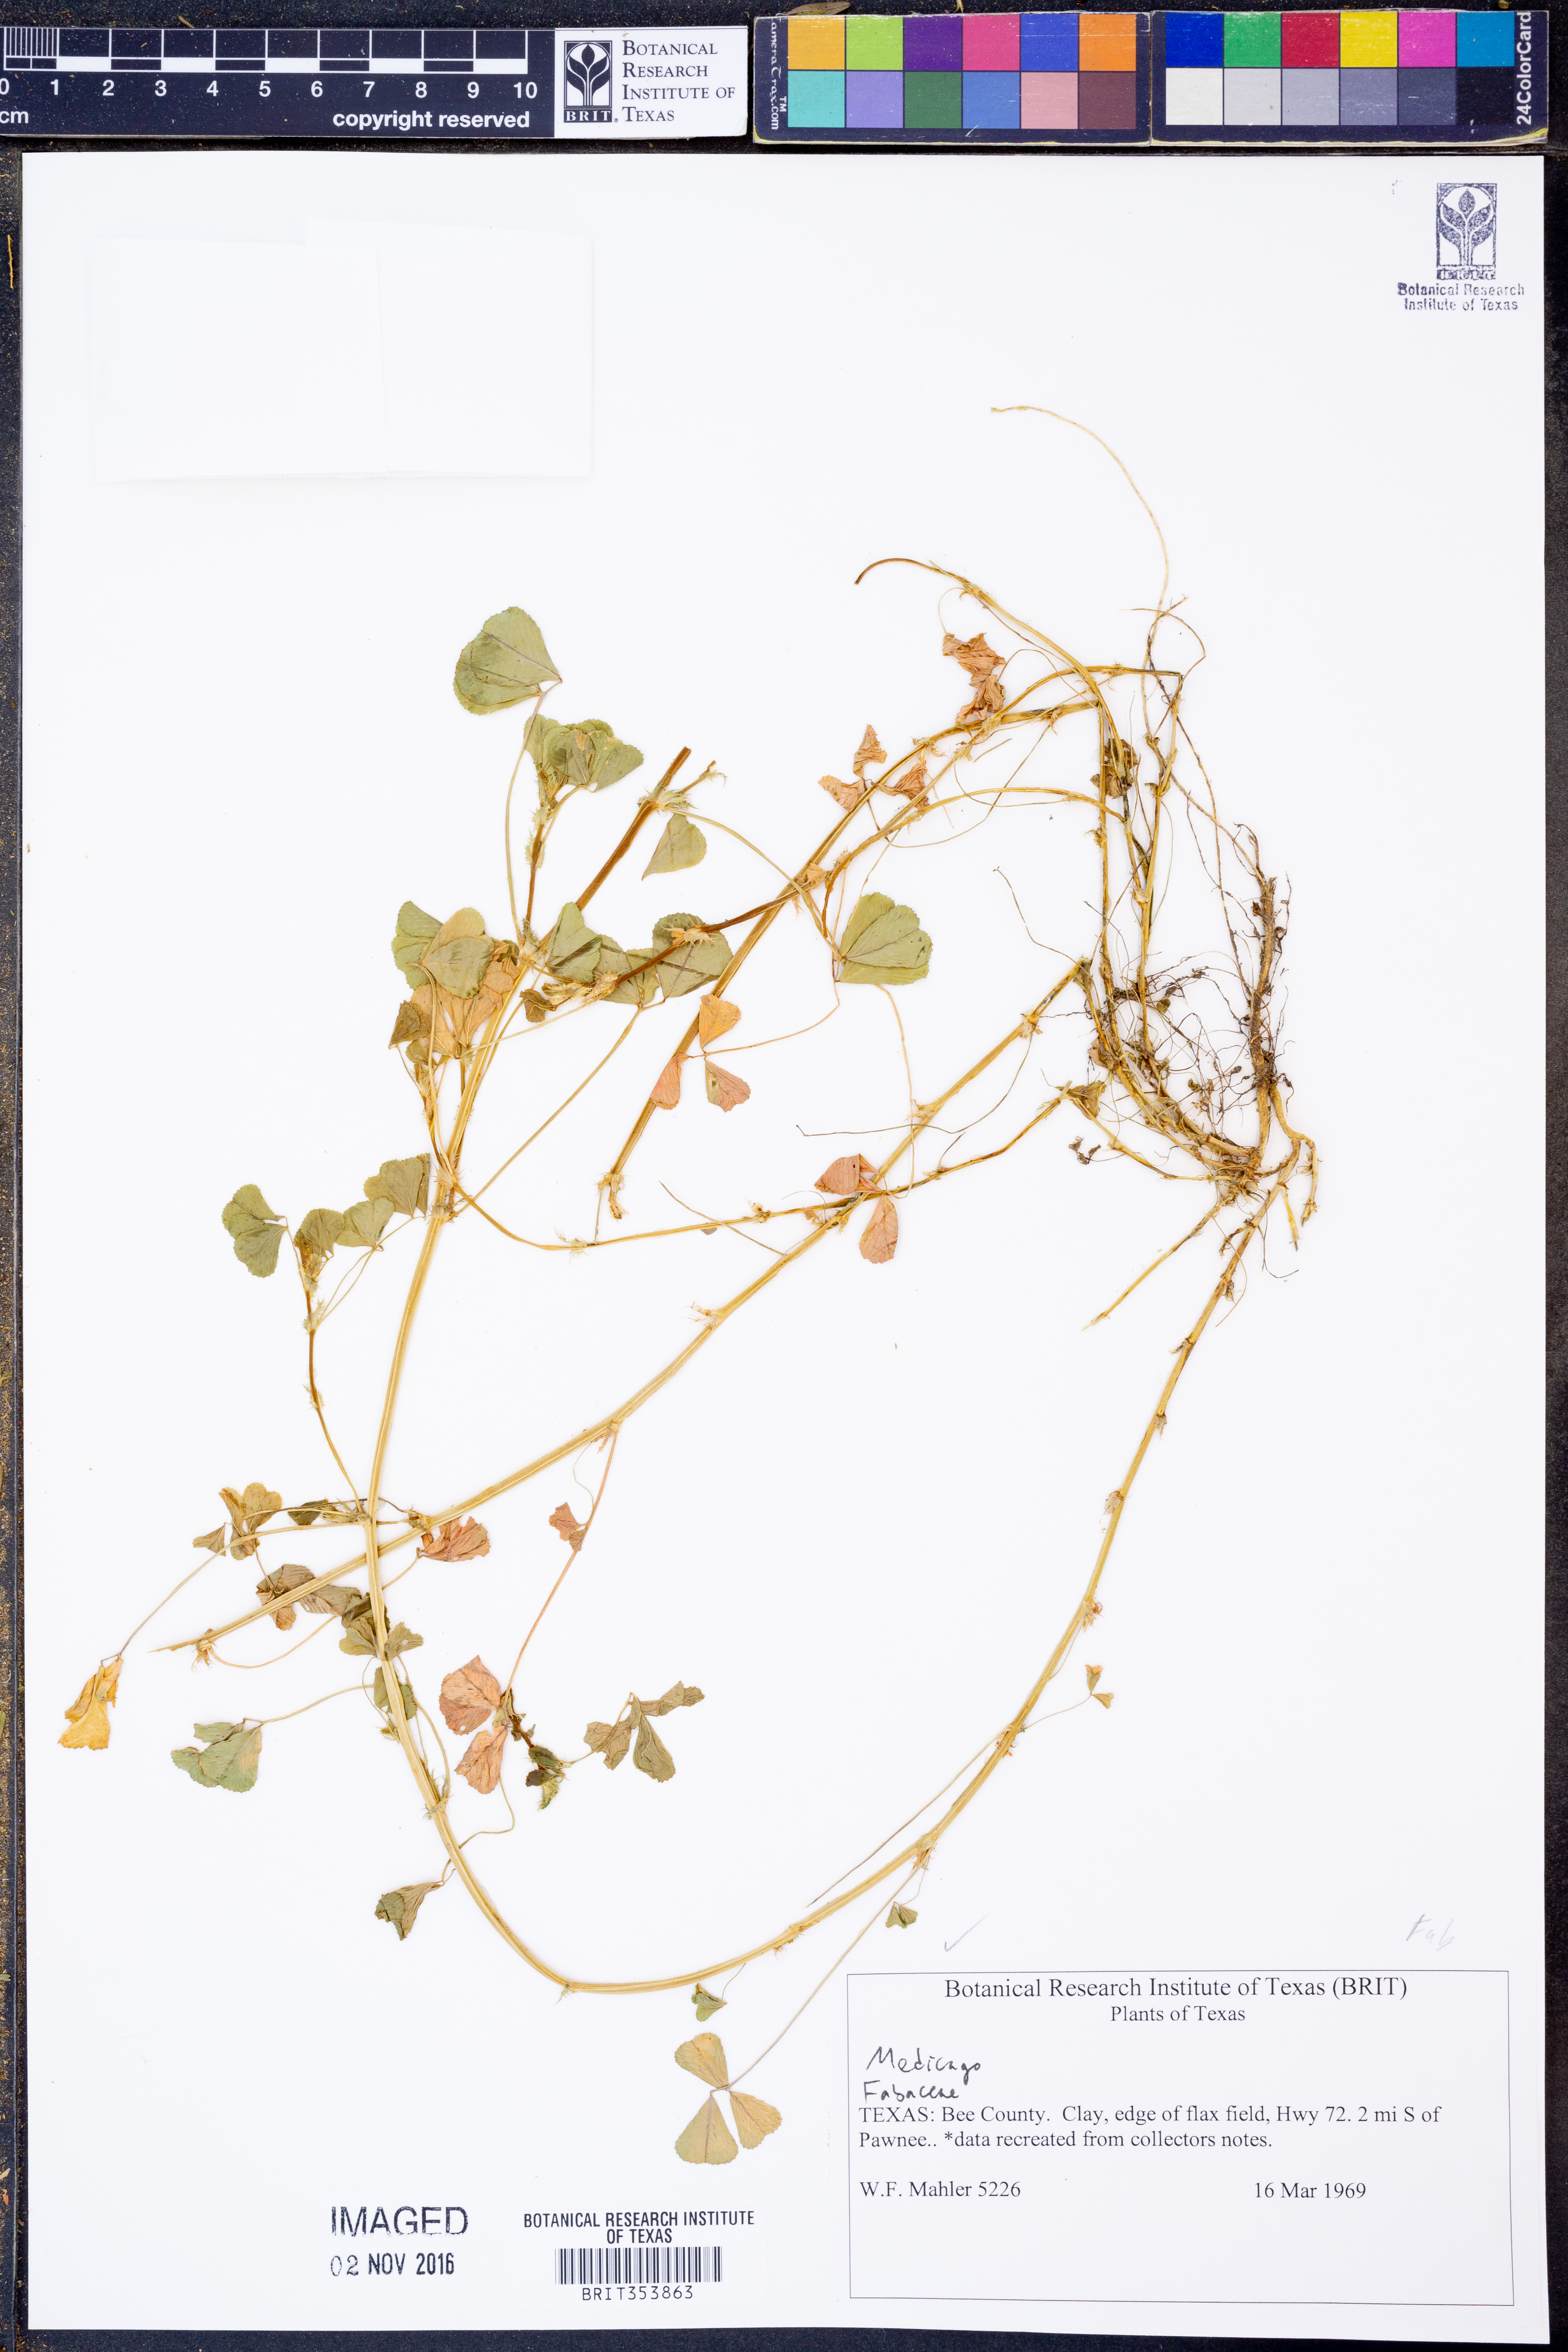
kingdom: Plantae
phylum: Tracheophyta
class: Magnoliopsida
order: Fabales
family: Fabaceae
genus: Medicago
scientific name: Medicago
